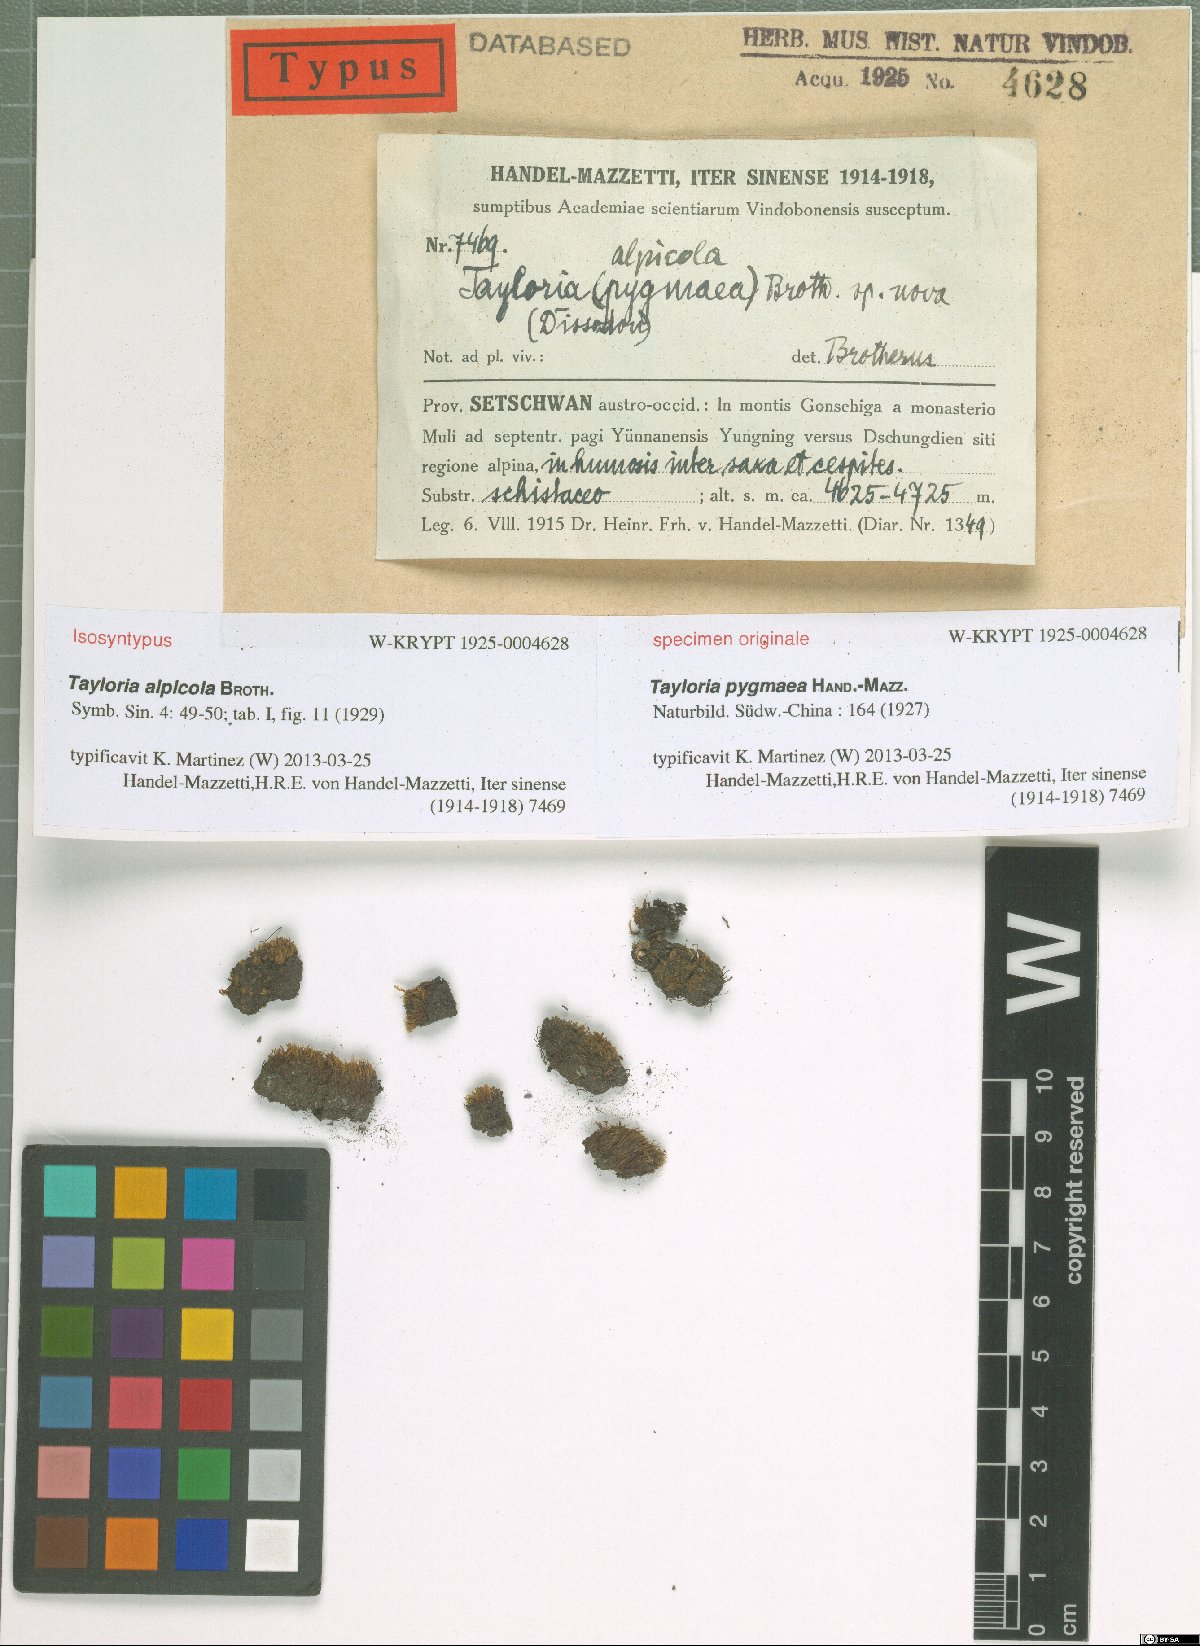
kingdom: Plantae
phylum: Bryophyta
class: Bryopsida
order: Splachnales
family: Splachnaceae
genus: Tayloria
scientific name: Tayloria alpicola
